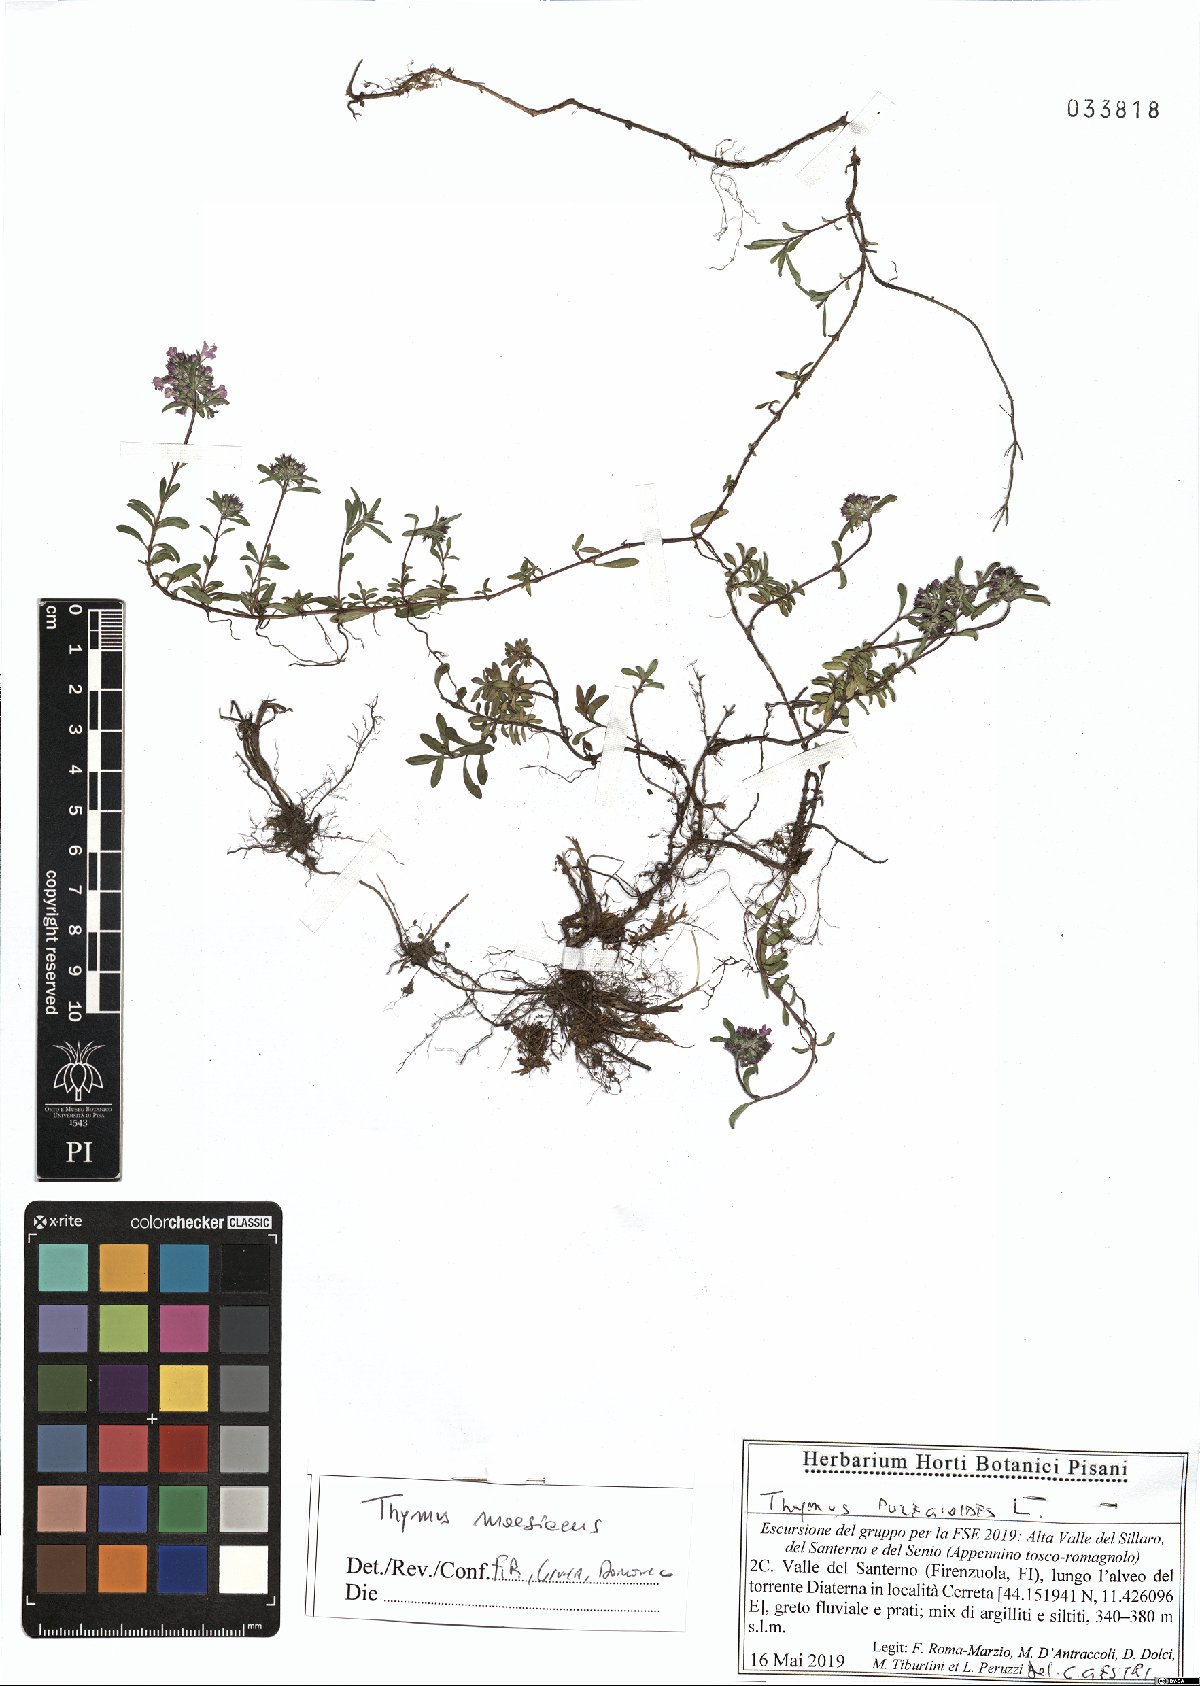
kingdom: Plantae
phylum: Tracheophyta
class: Magnoliopsida
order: Lamiales
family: Lamiaceae
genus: Thymus
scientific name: Thymus longicaulis
